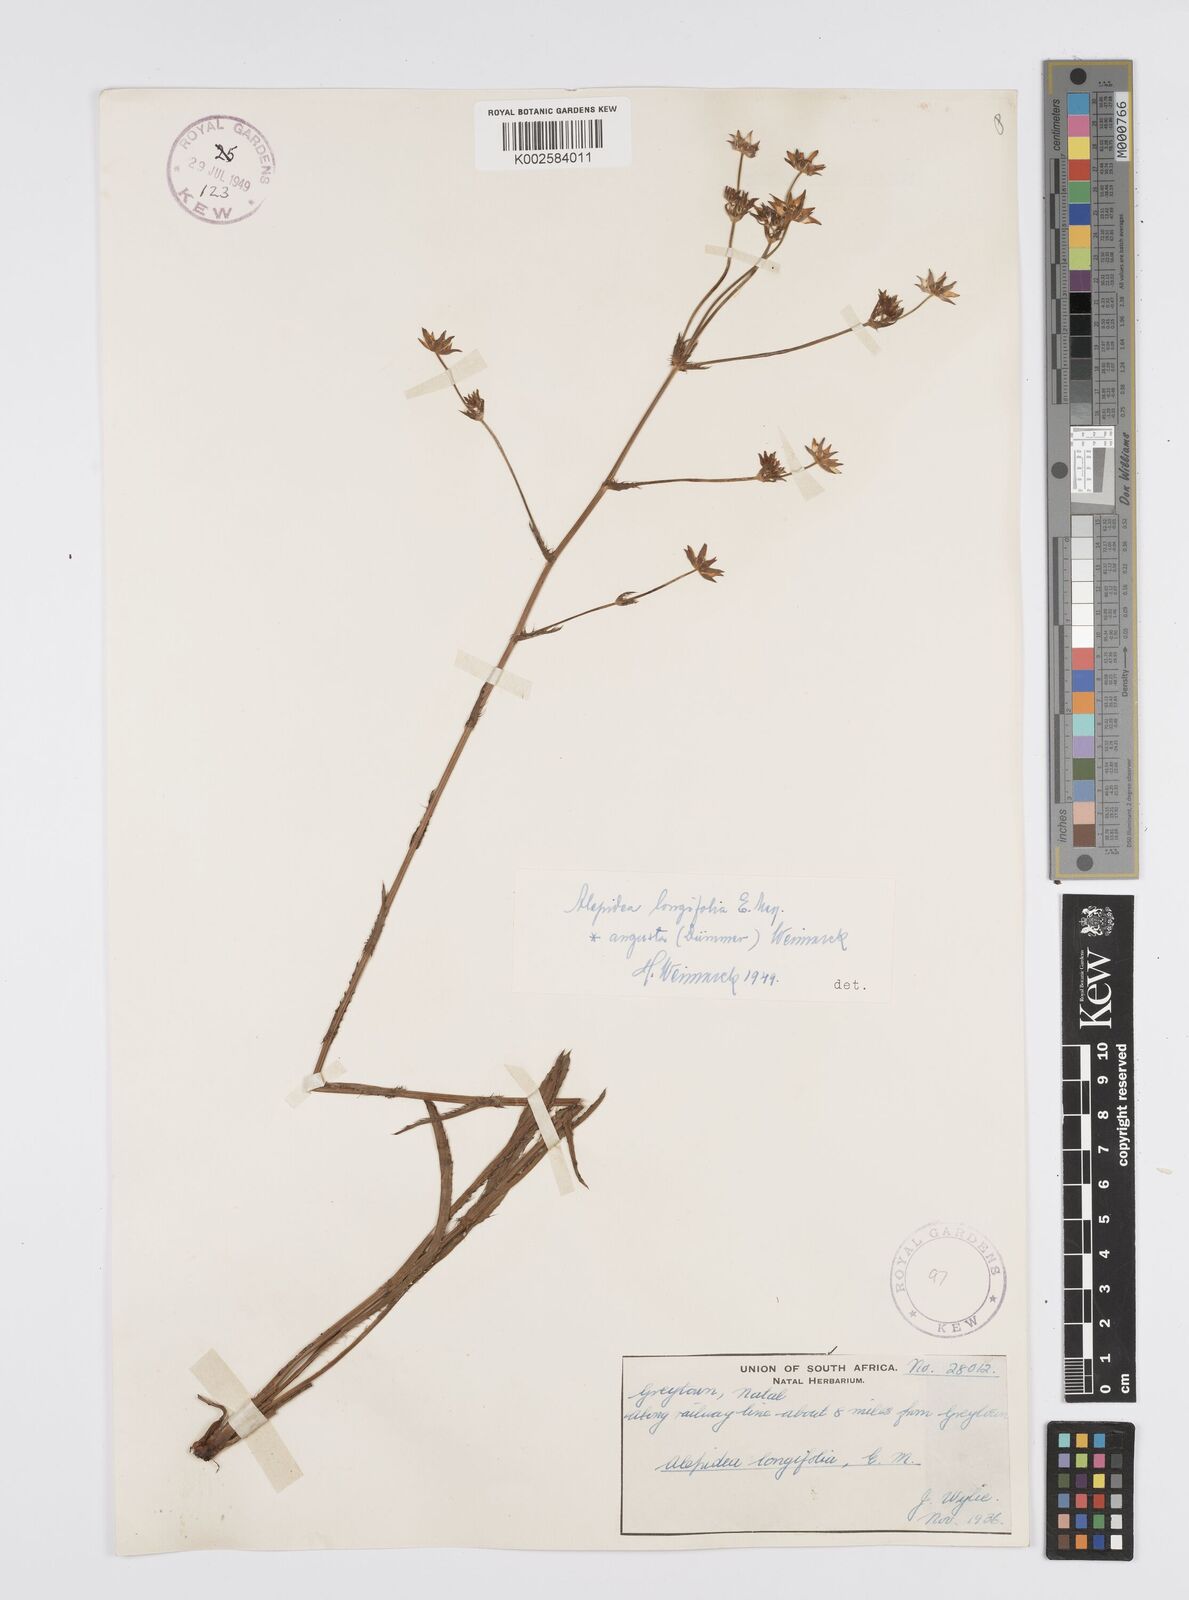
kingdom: Plantae
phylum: Tracheophyta
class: Magnoliopsida
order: Apiales
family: Apiaceae
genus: Alepidea
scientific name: Alepidea
